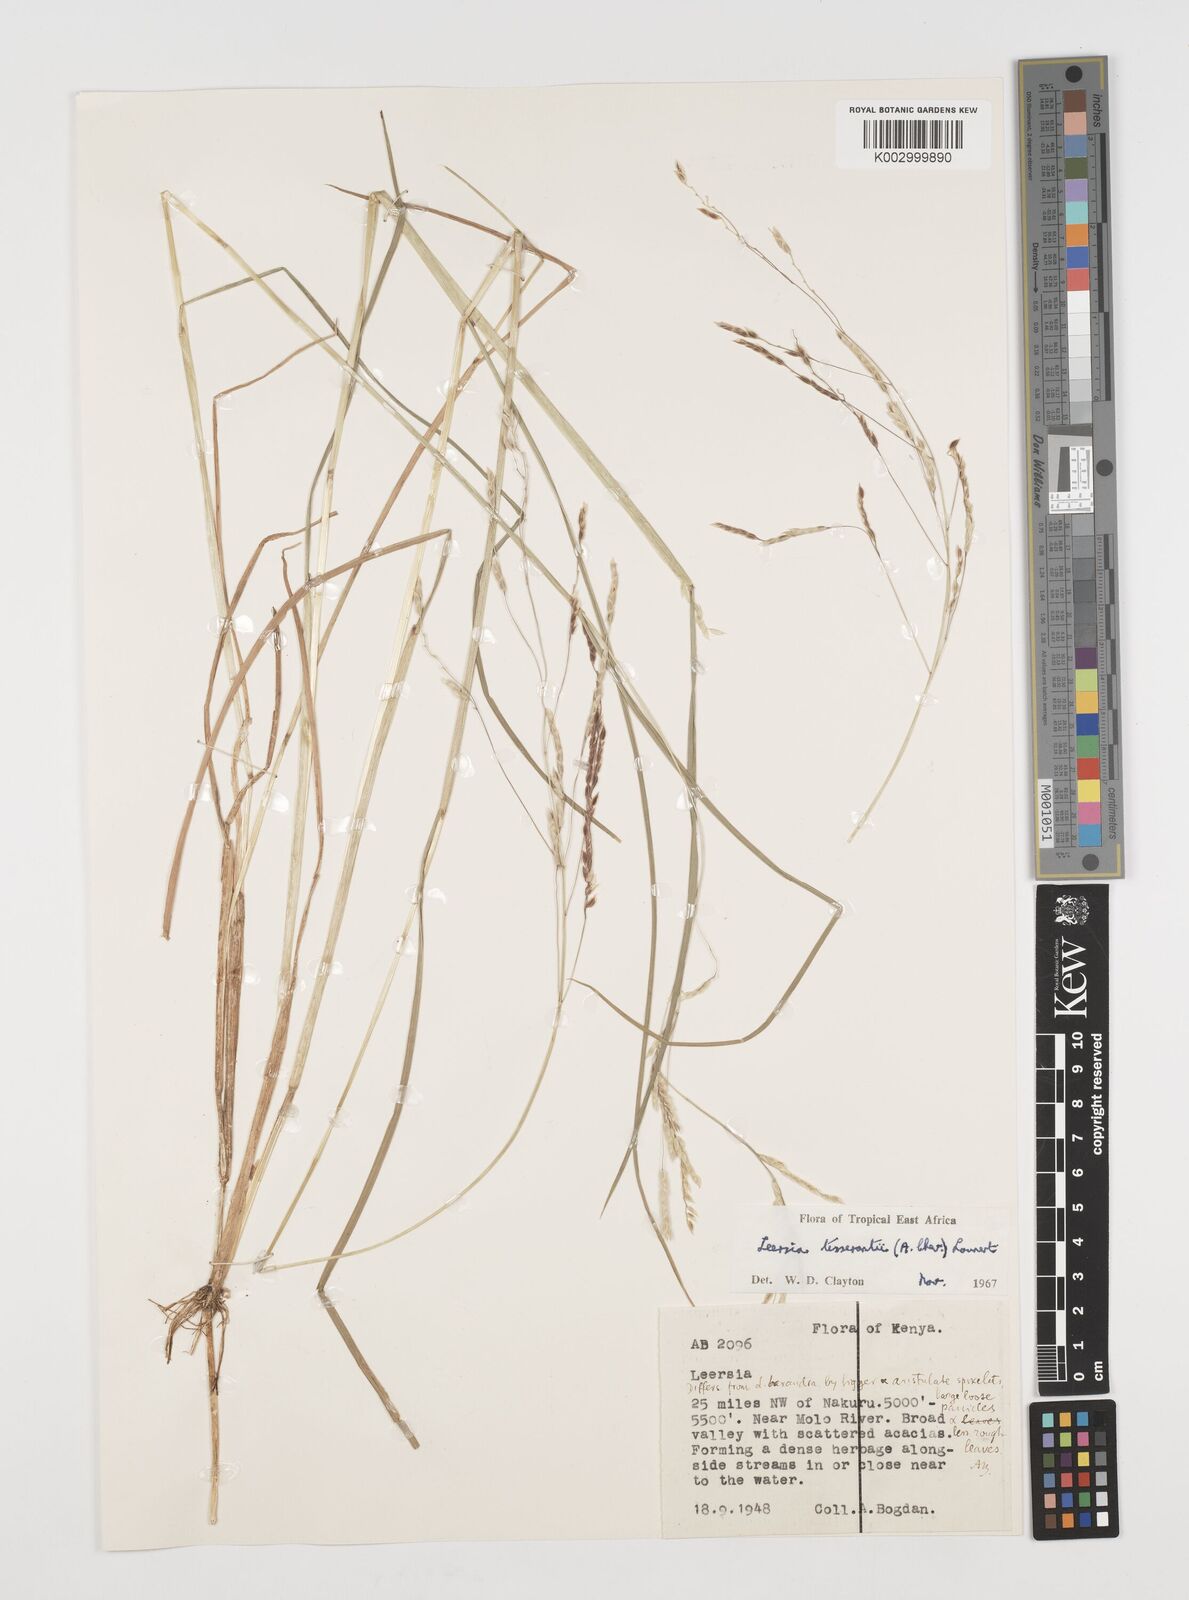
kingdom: Plantae
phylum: Tracheophyta
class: Liliopsida
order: Poales
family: Poaceae
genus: Leersia
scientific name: Leersia angustifolia
